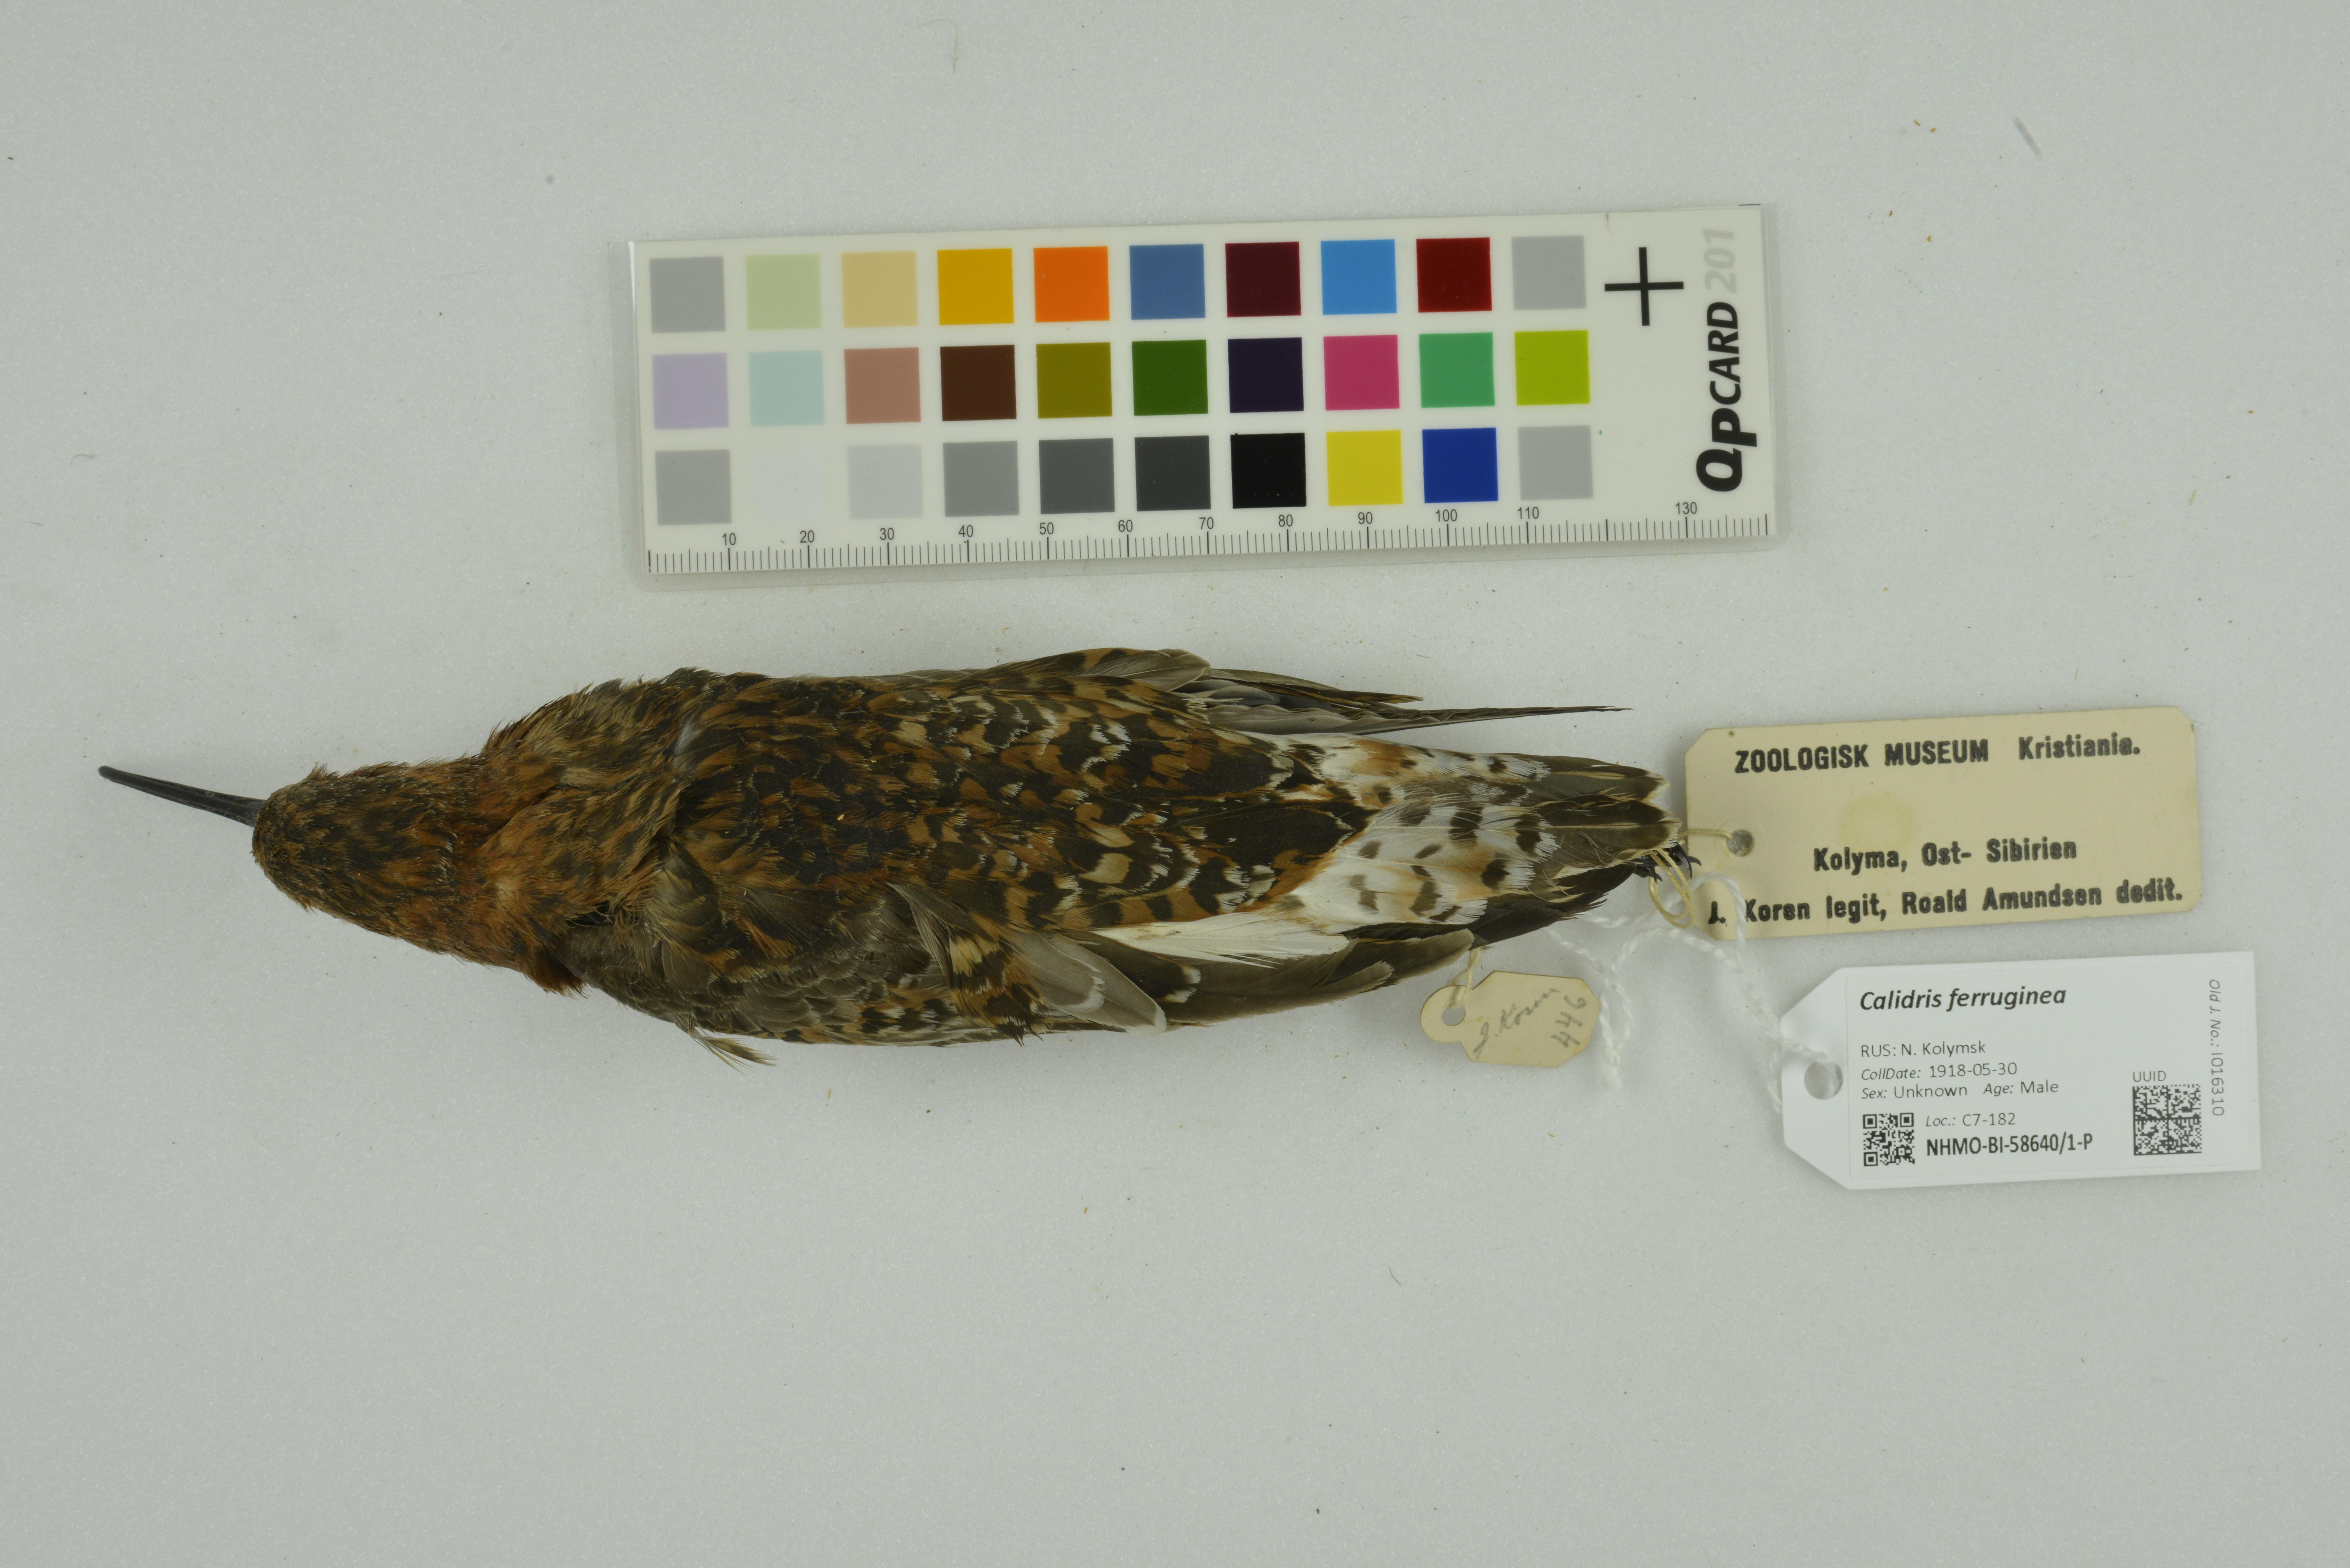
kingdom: Animalia
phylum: Chordata
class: Aves
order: Charadriiformes
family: Scolopacidae
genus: Calidris
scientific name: Calidris ferruginea
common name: Curlew sandpiper
